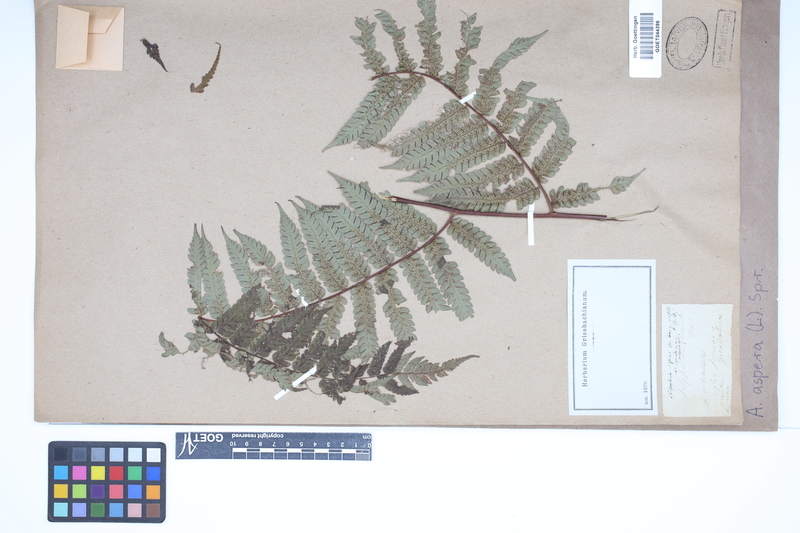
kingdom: Plantae
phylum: Tracheophyta
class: Polypodiopsida
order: Cyatheales
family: Cyatheaceae
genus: Cyathea
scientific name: Cyathea aspera
